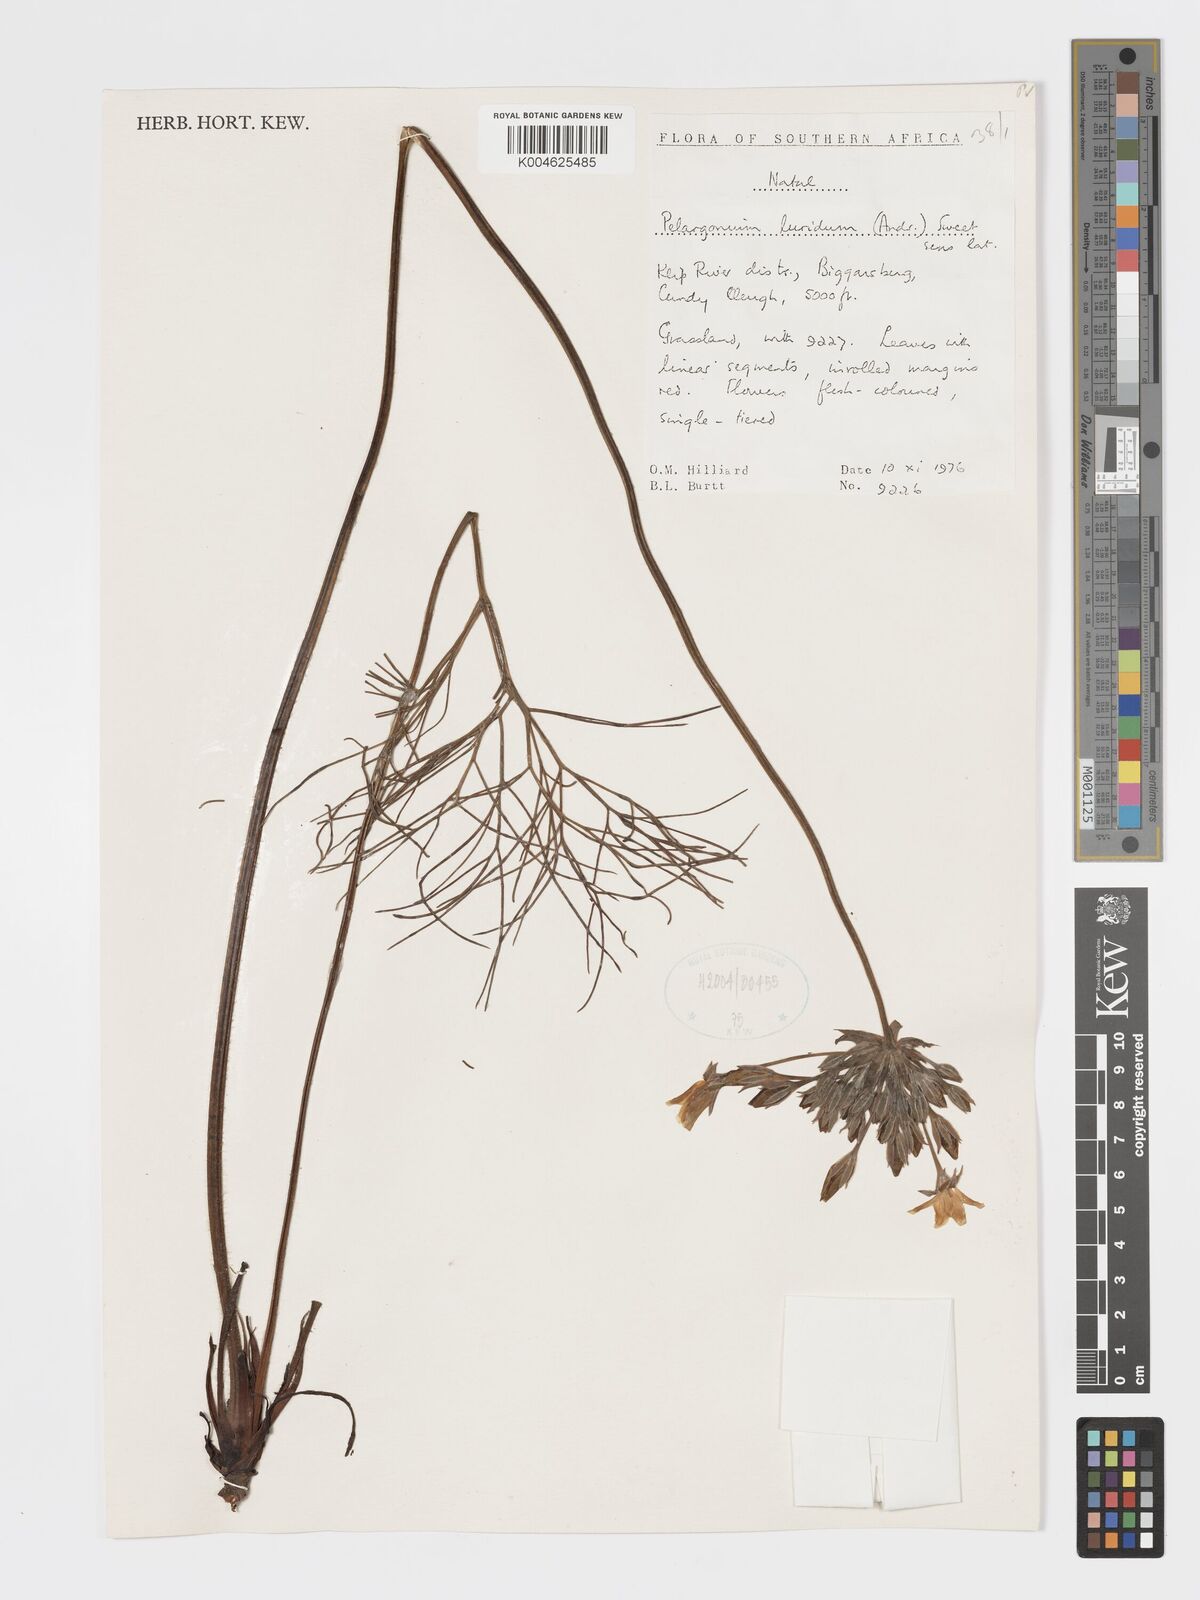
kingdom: Plantae
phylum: Tracheophyta
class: Magnoliopsida
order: Geraniales
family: Geraniaceae
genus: Pelargonium
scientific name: Pelargonium luridum
